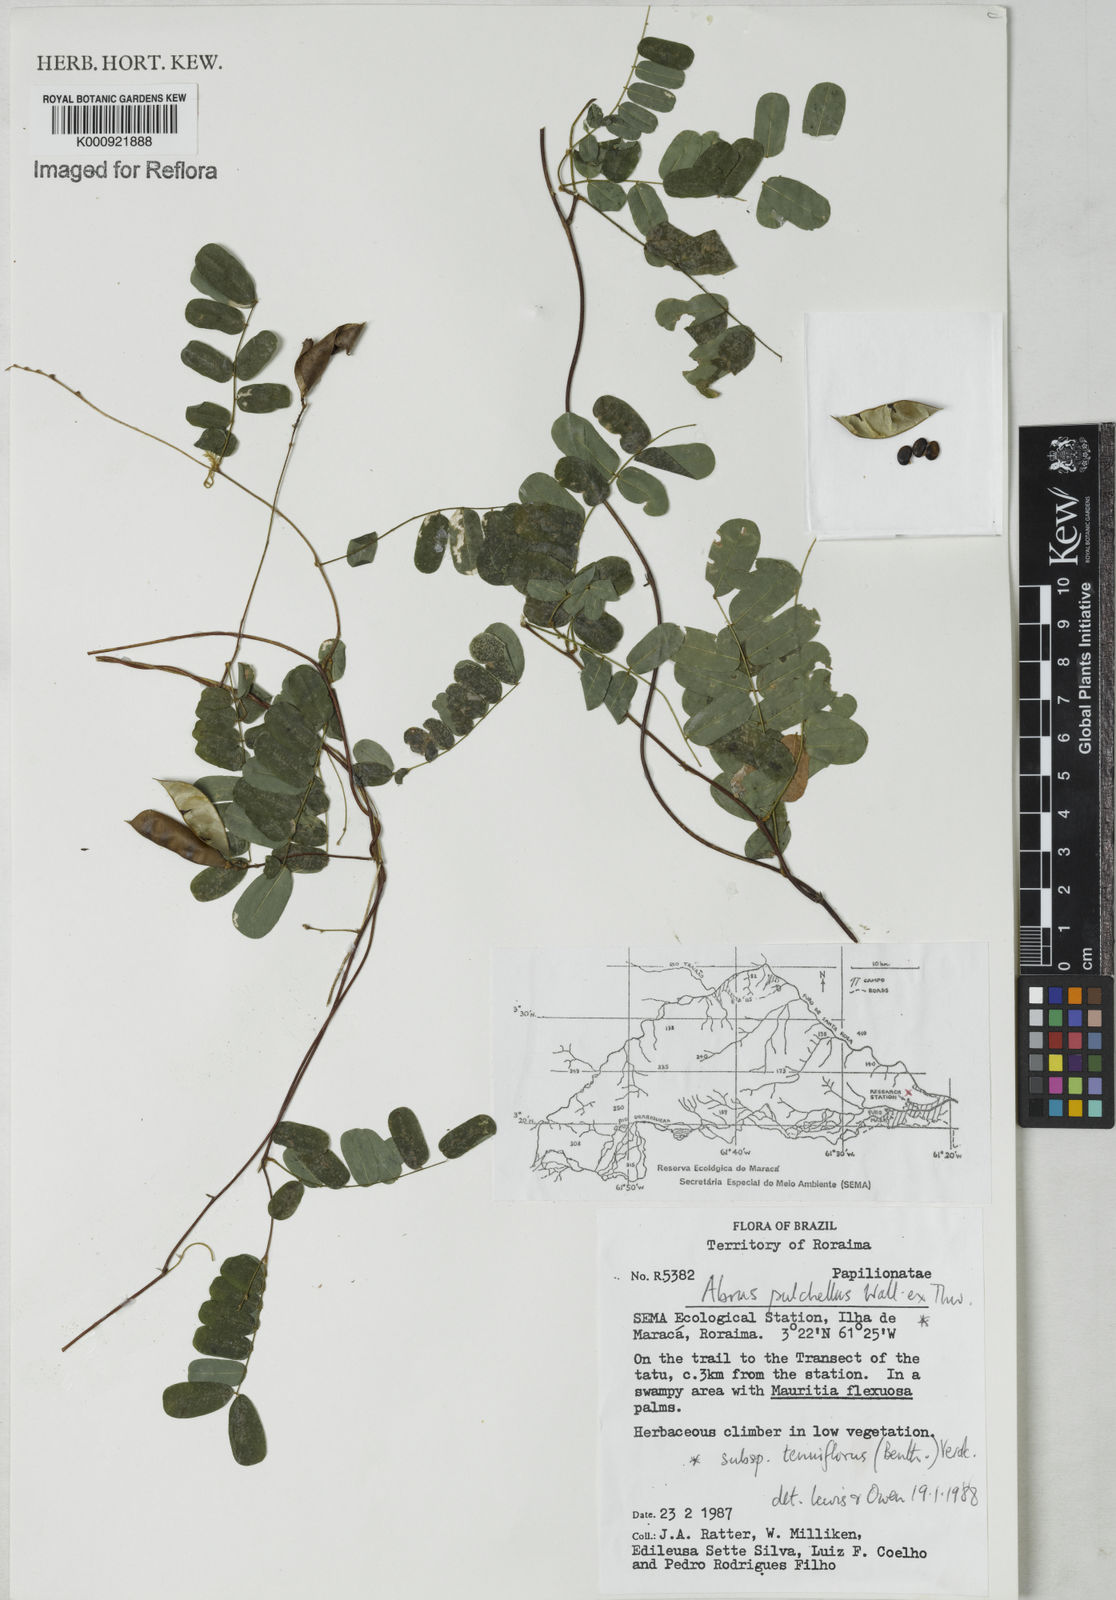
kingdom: Plantae
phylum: Tracheophyta
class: Magnoliopsida
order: Fabales
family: Fabaceae
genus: Abrus
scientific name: Abrus melanospermus
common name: Licorice-root
